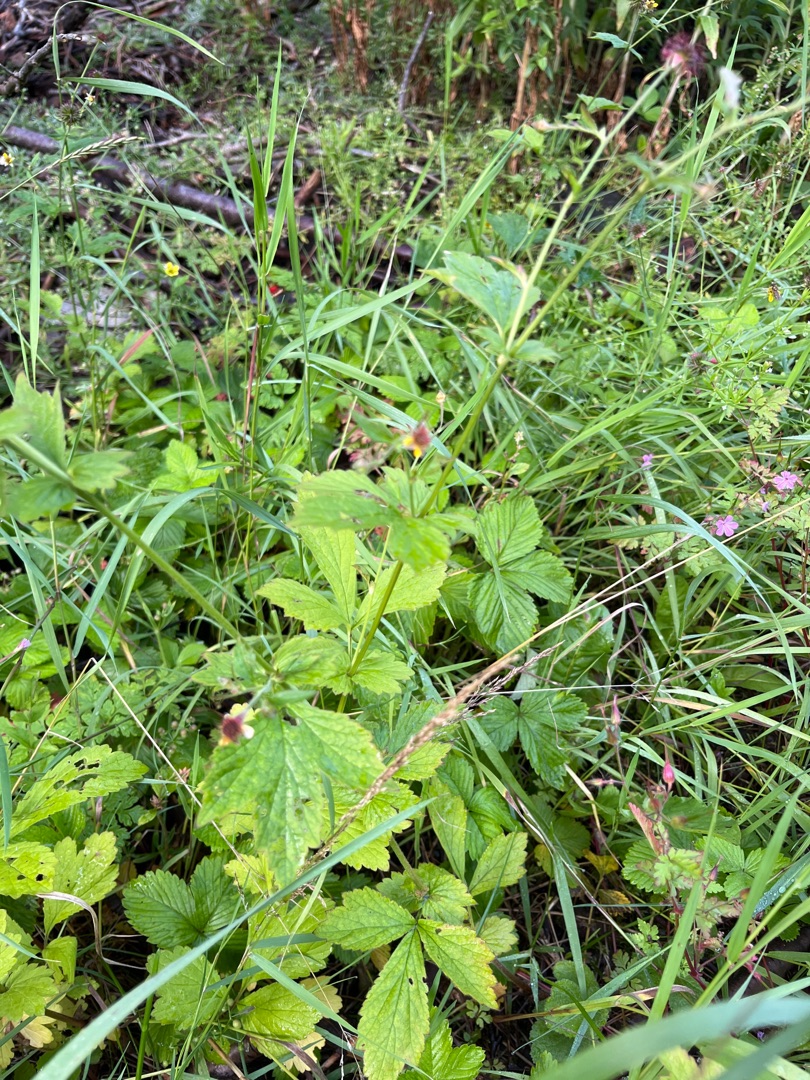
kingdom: Plantae
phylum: Tracheophyta
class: Magnoliopsida
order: Rosales
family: Rosaceae
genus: Geum
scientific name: Geum urbanum
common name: Feber-nellikerod
